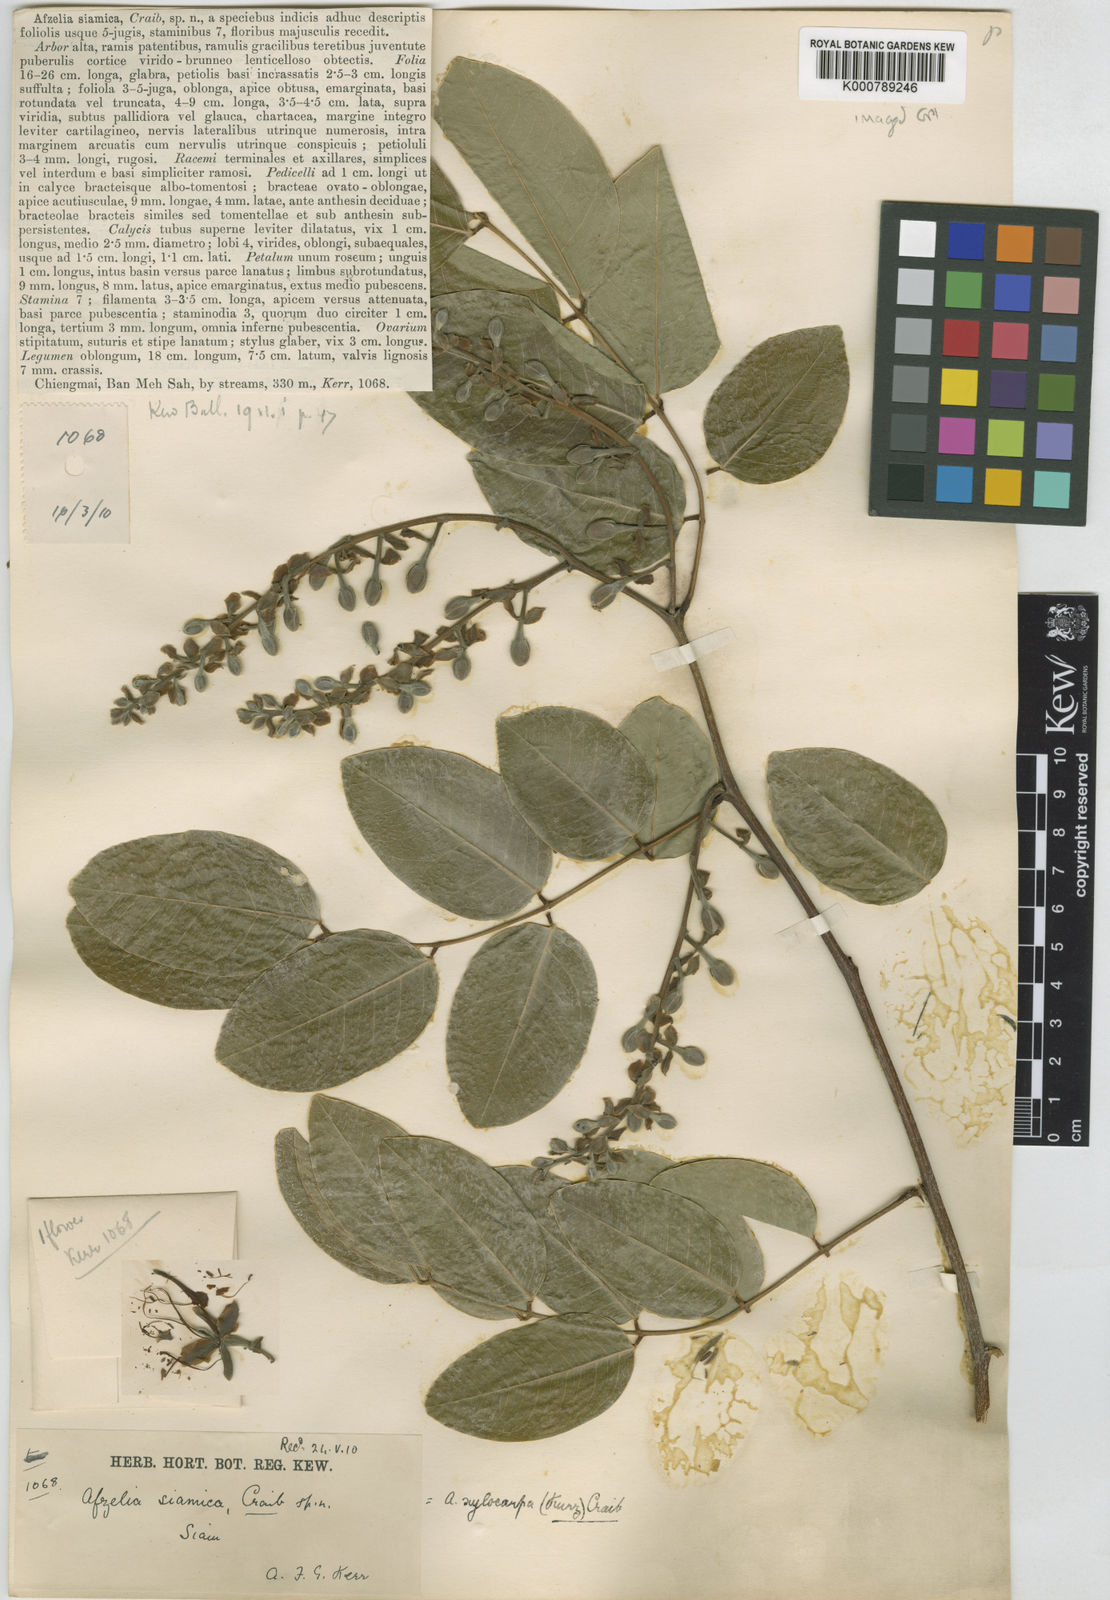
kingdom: Plantae
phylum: Tracheophyta
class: Magnoliopsida
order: Fabales
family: Fabaceae
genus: Afzelia
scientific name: Afzelia xylocarpa
